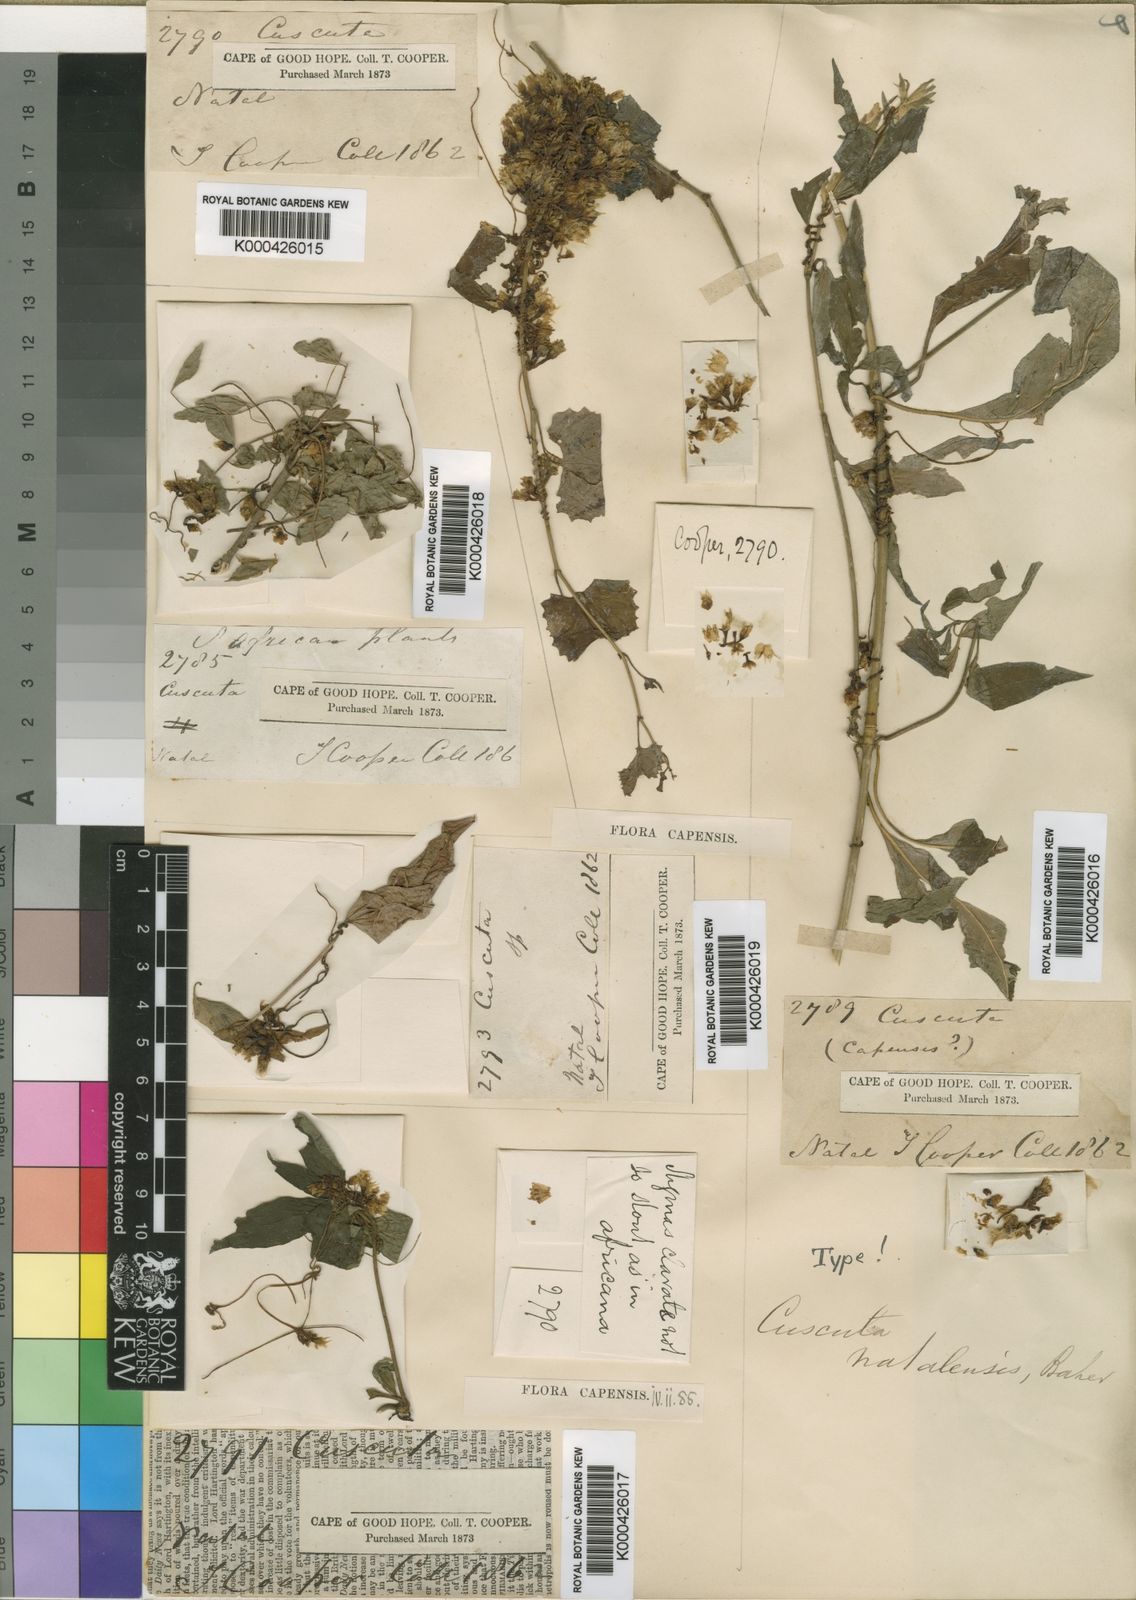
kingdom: Plantae
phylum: Tracheophyta
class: Magnoliopsida
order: Solanales
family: Convolvulaceae
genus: Cuscuta
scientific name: Cuscuta natalensis
